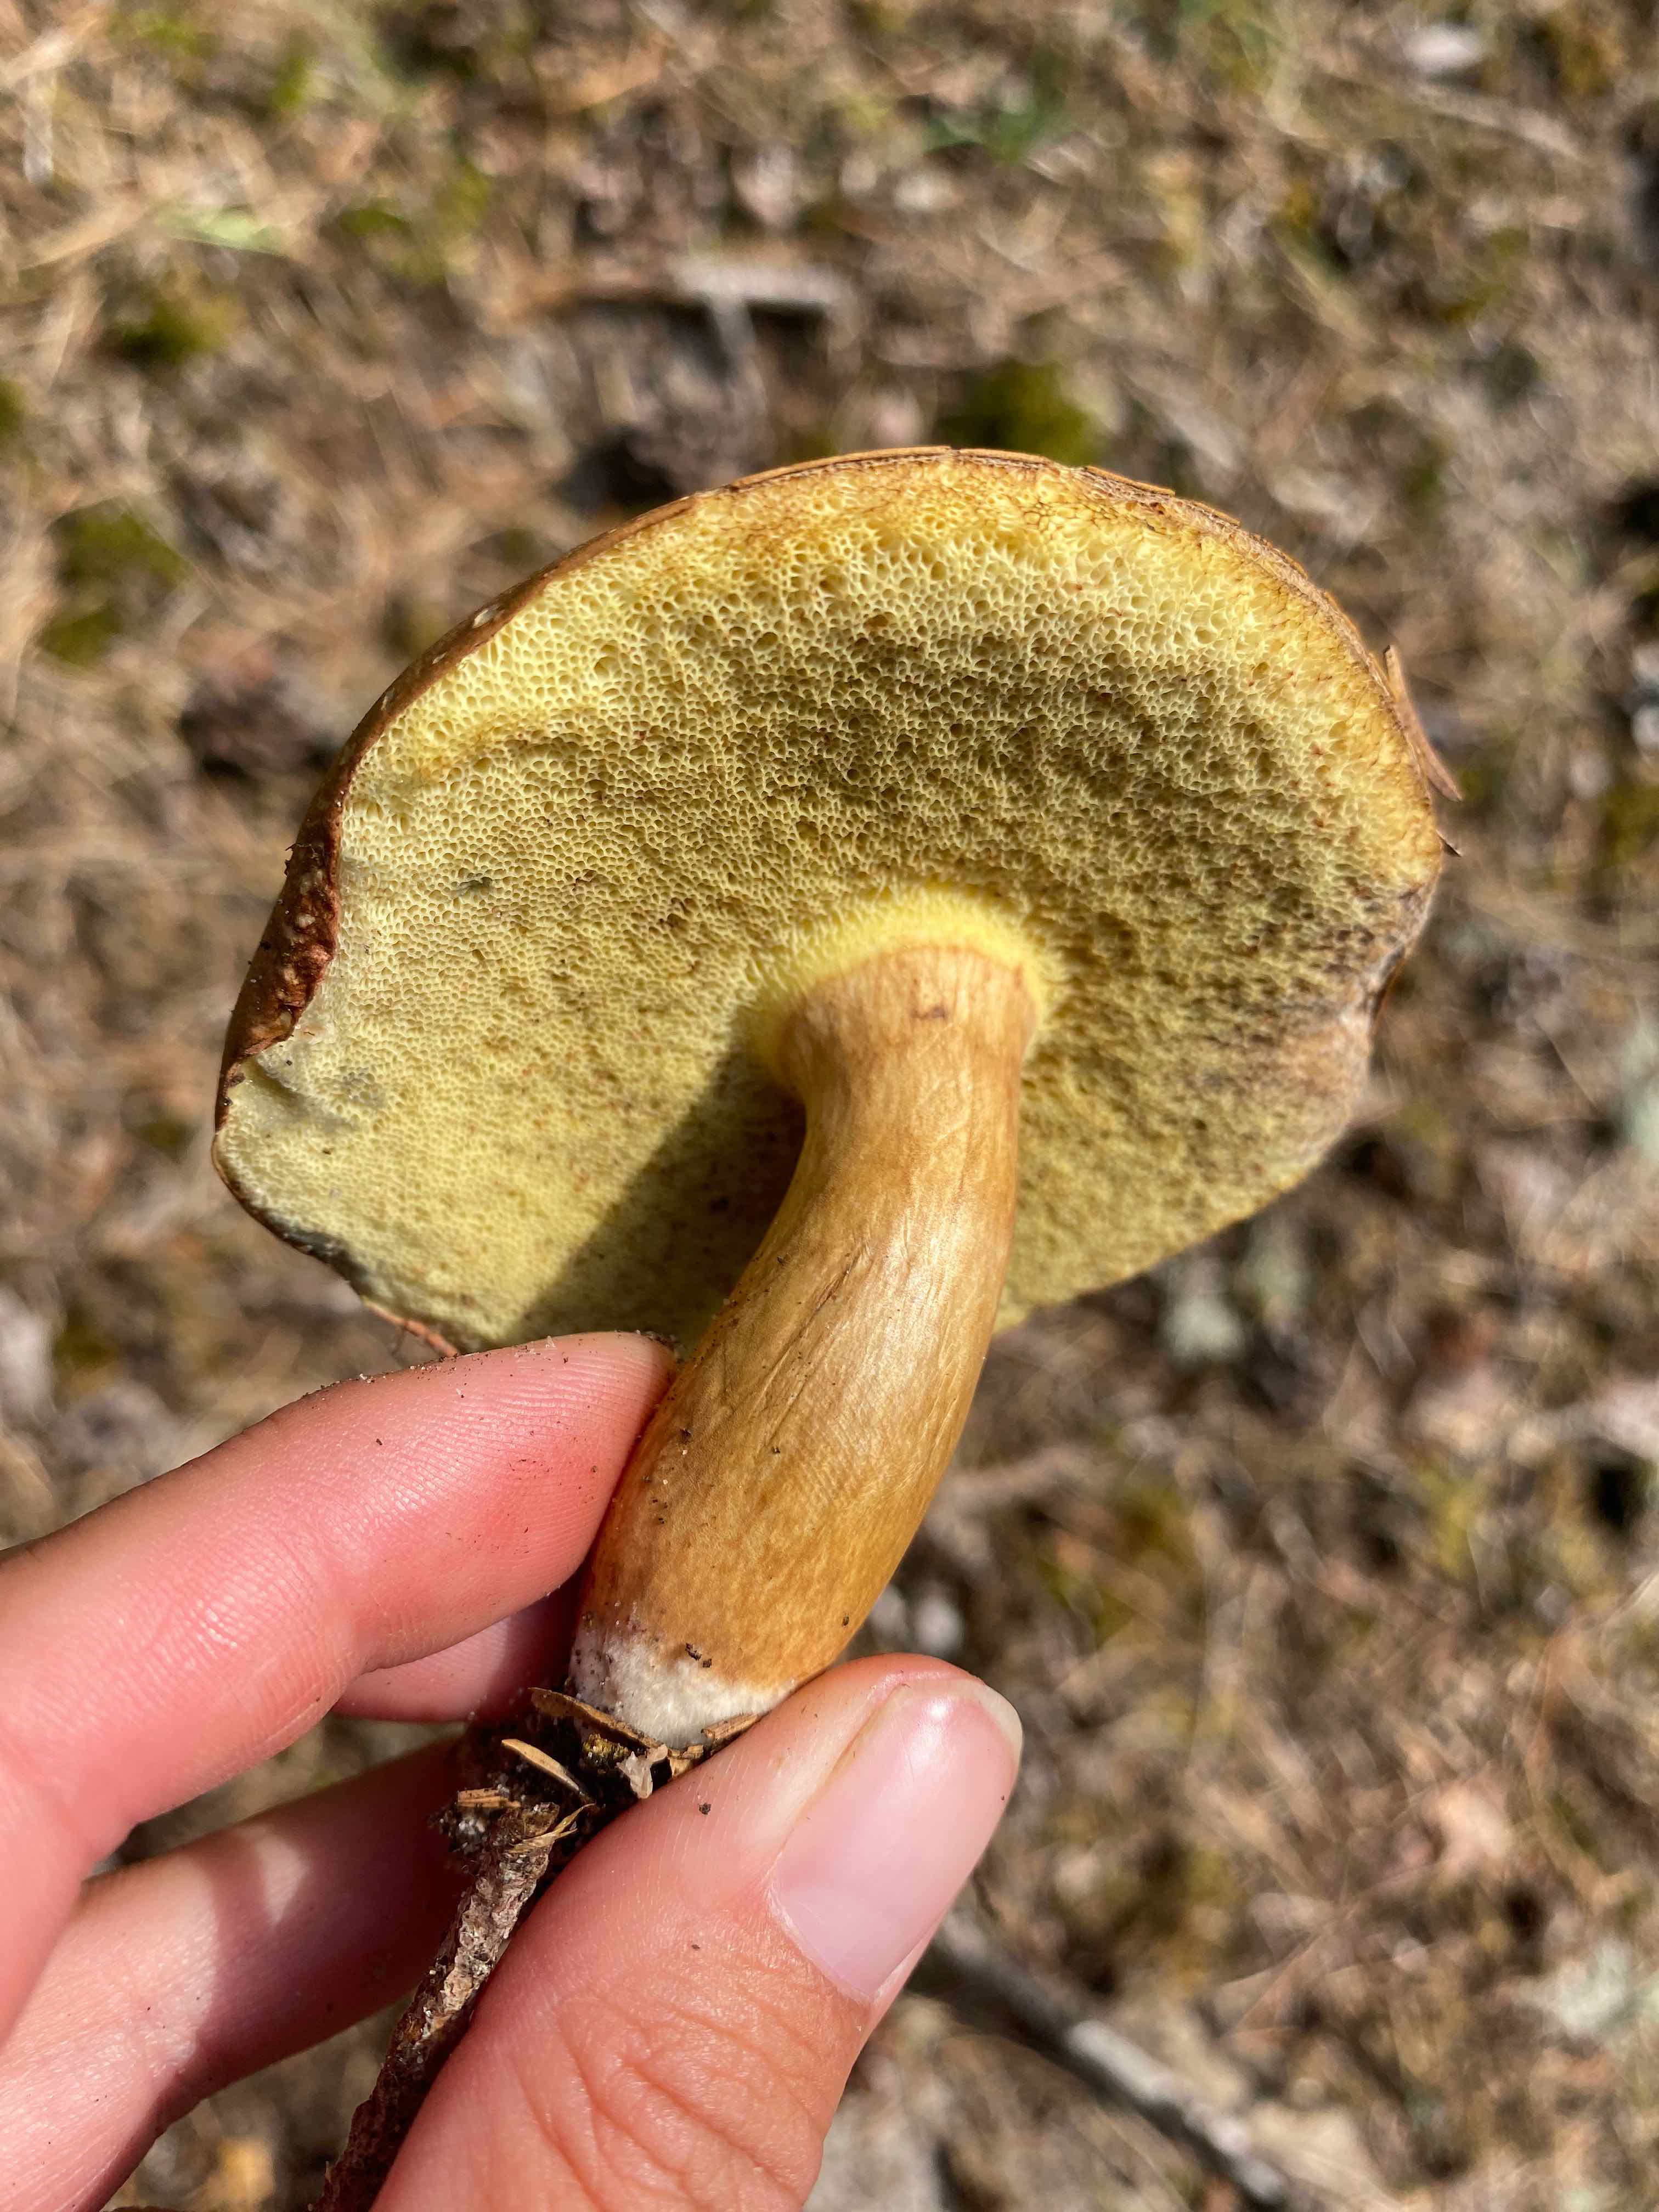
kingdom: Fungi
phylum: Basidiomycota
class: Agaricomycetes
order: Boletales
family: Boletaceae
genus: Imleria
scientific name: Imleria badia
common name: brunstokket rørhat
